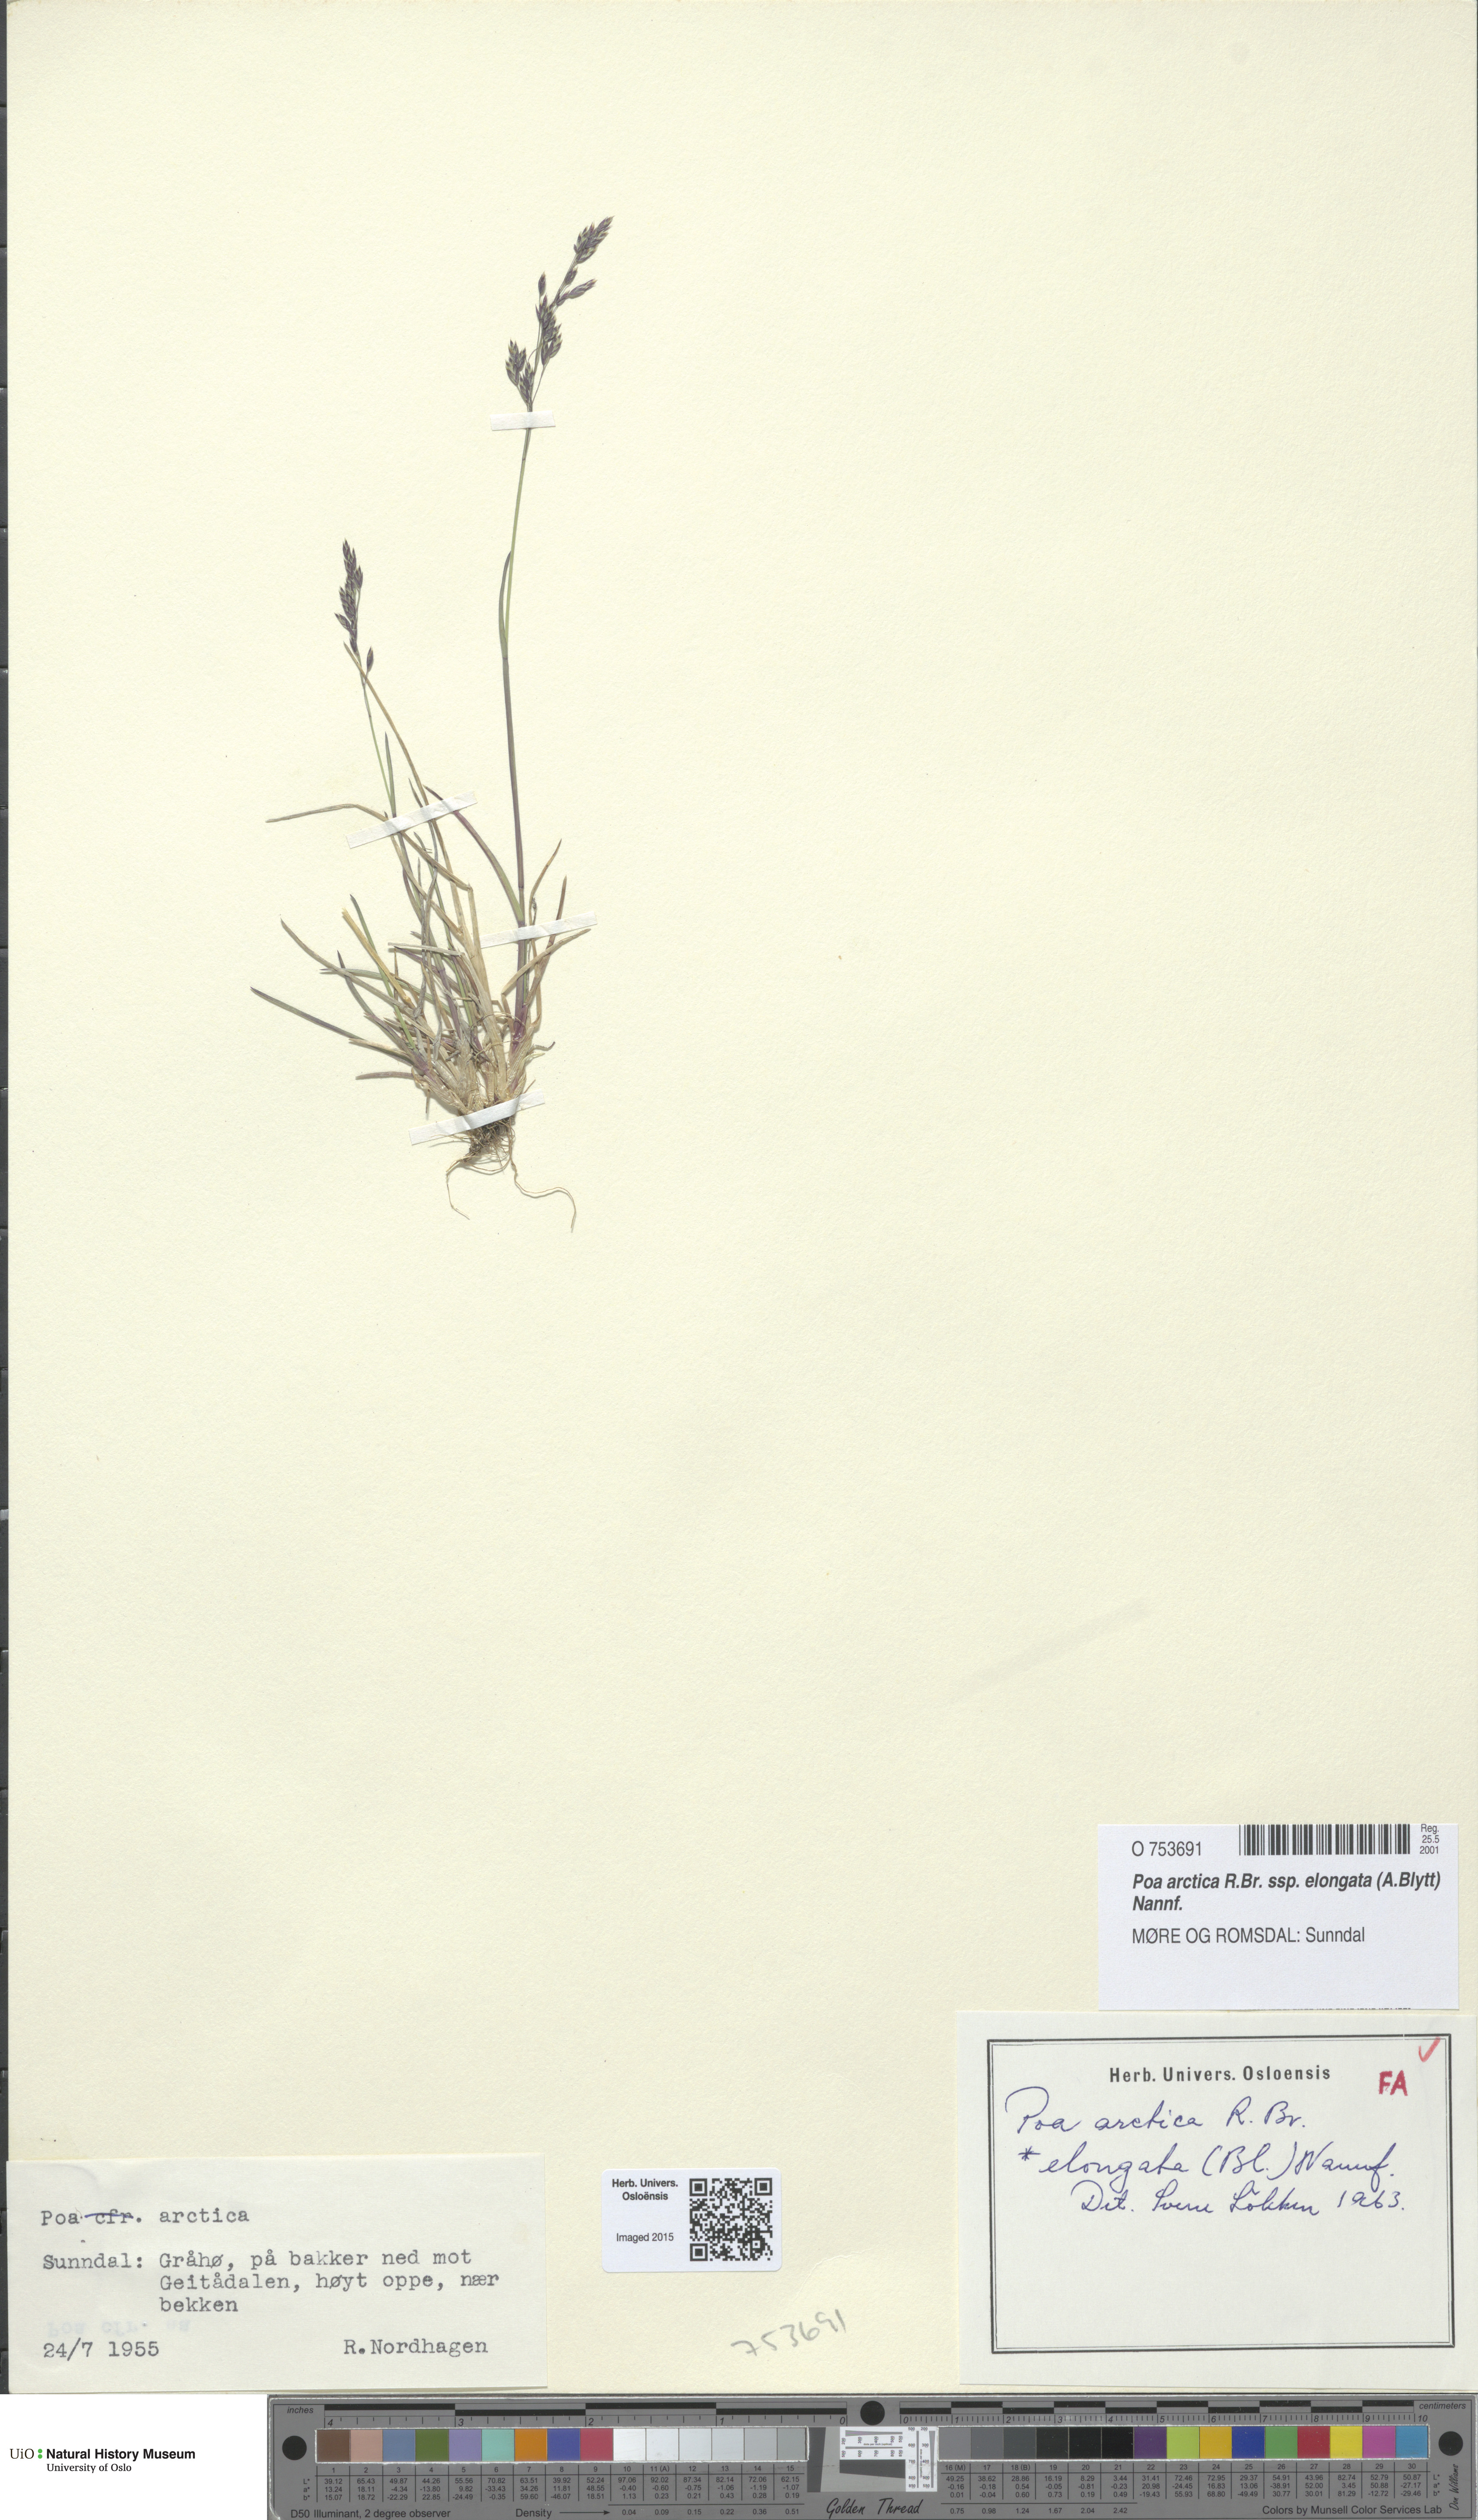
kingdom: Plantae
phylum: Tracheophyta
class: Liliopsida
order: Poales
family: Poaceae
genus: Poa
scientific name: Poa arctica
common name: Arctic bluegrass
